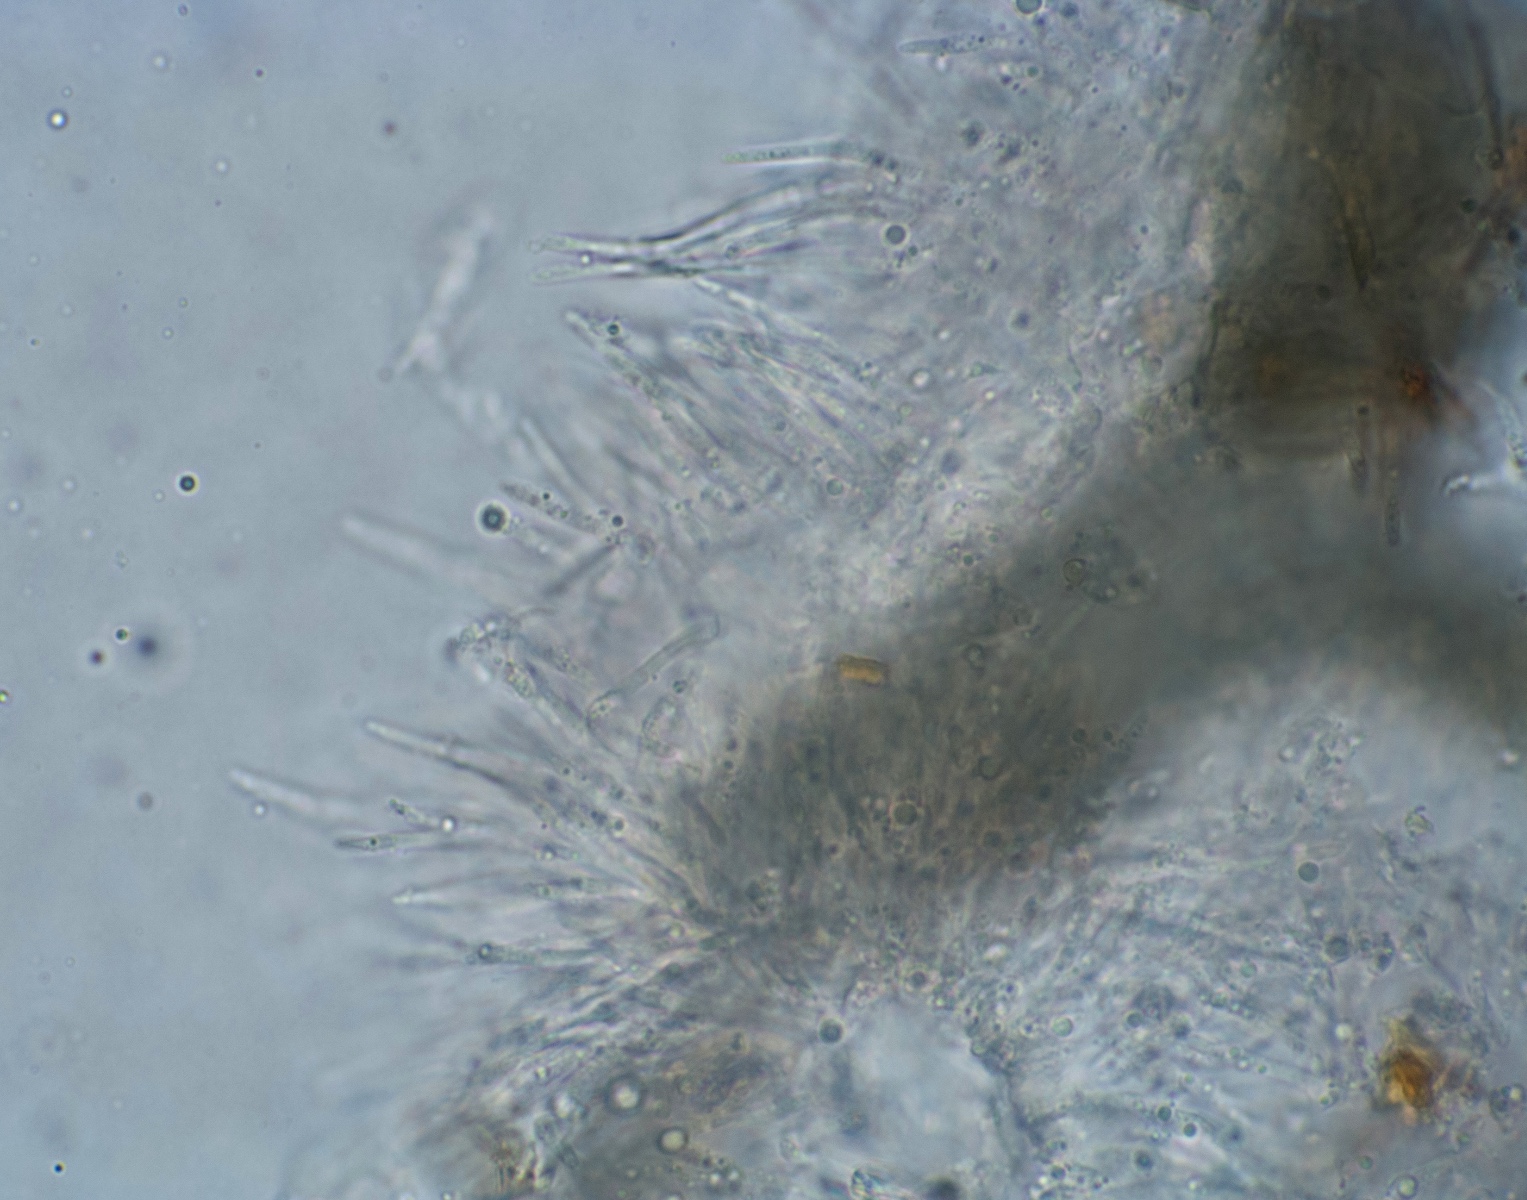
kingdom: Fungi
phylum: Ascomycota
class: Dothideomycetes
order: Capnodiales
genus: Septocyta
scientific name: Septocyta ruborum
